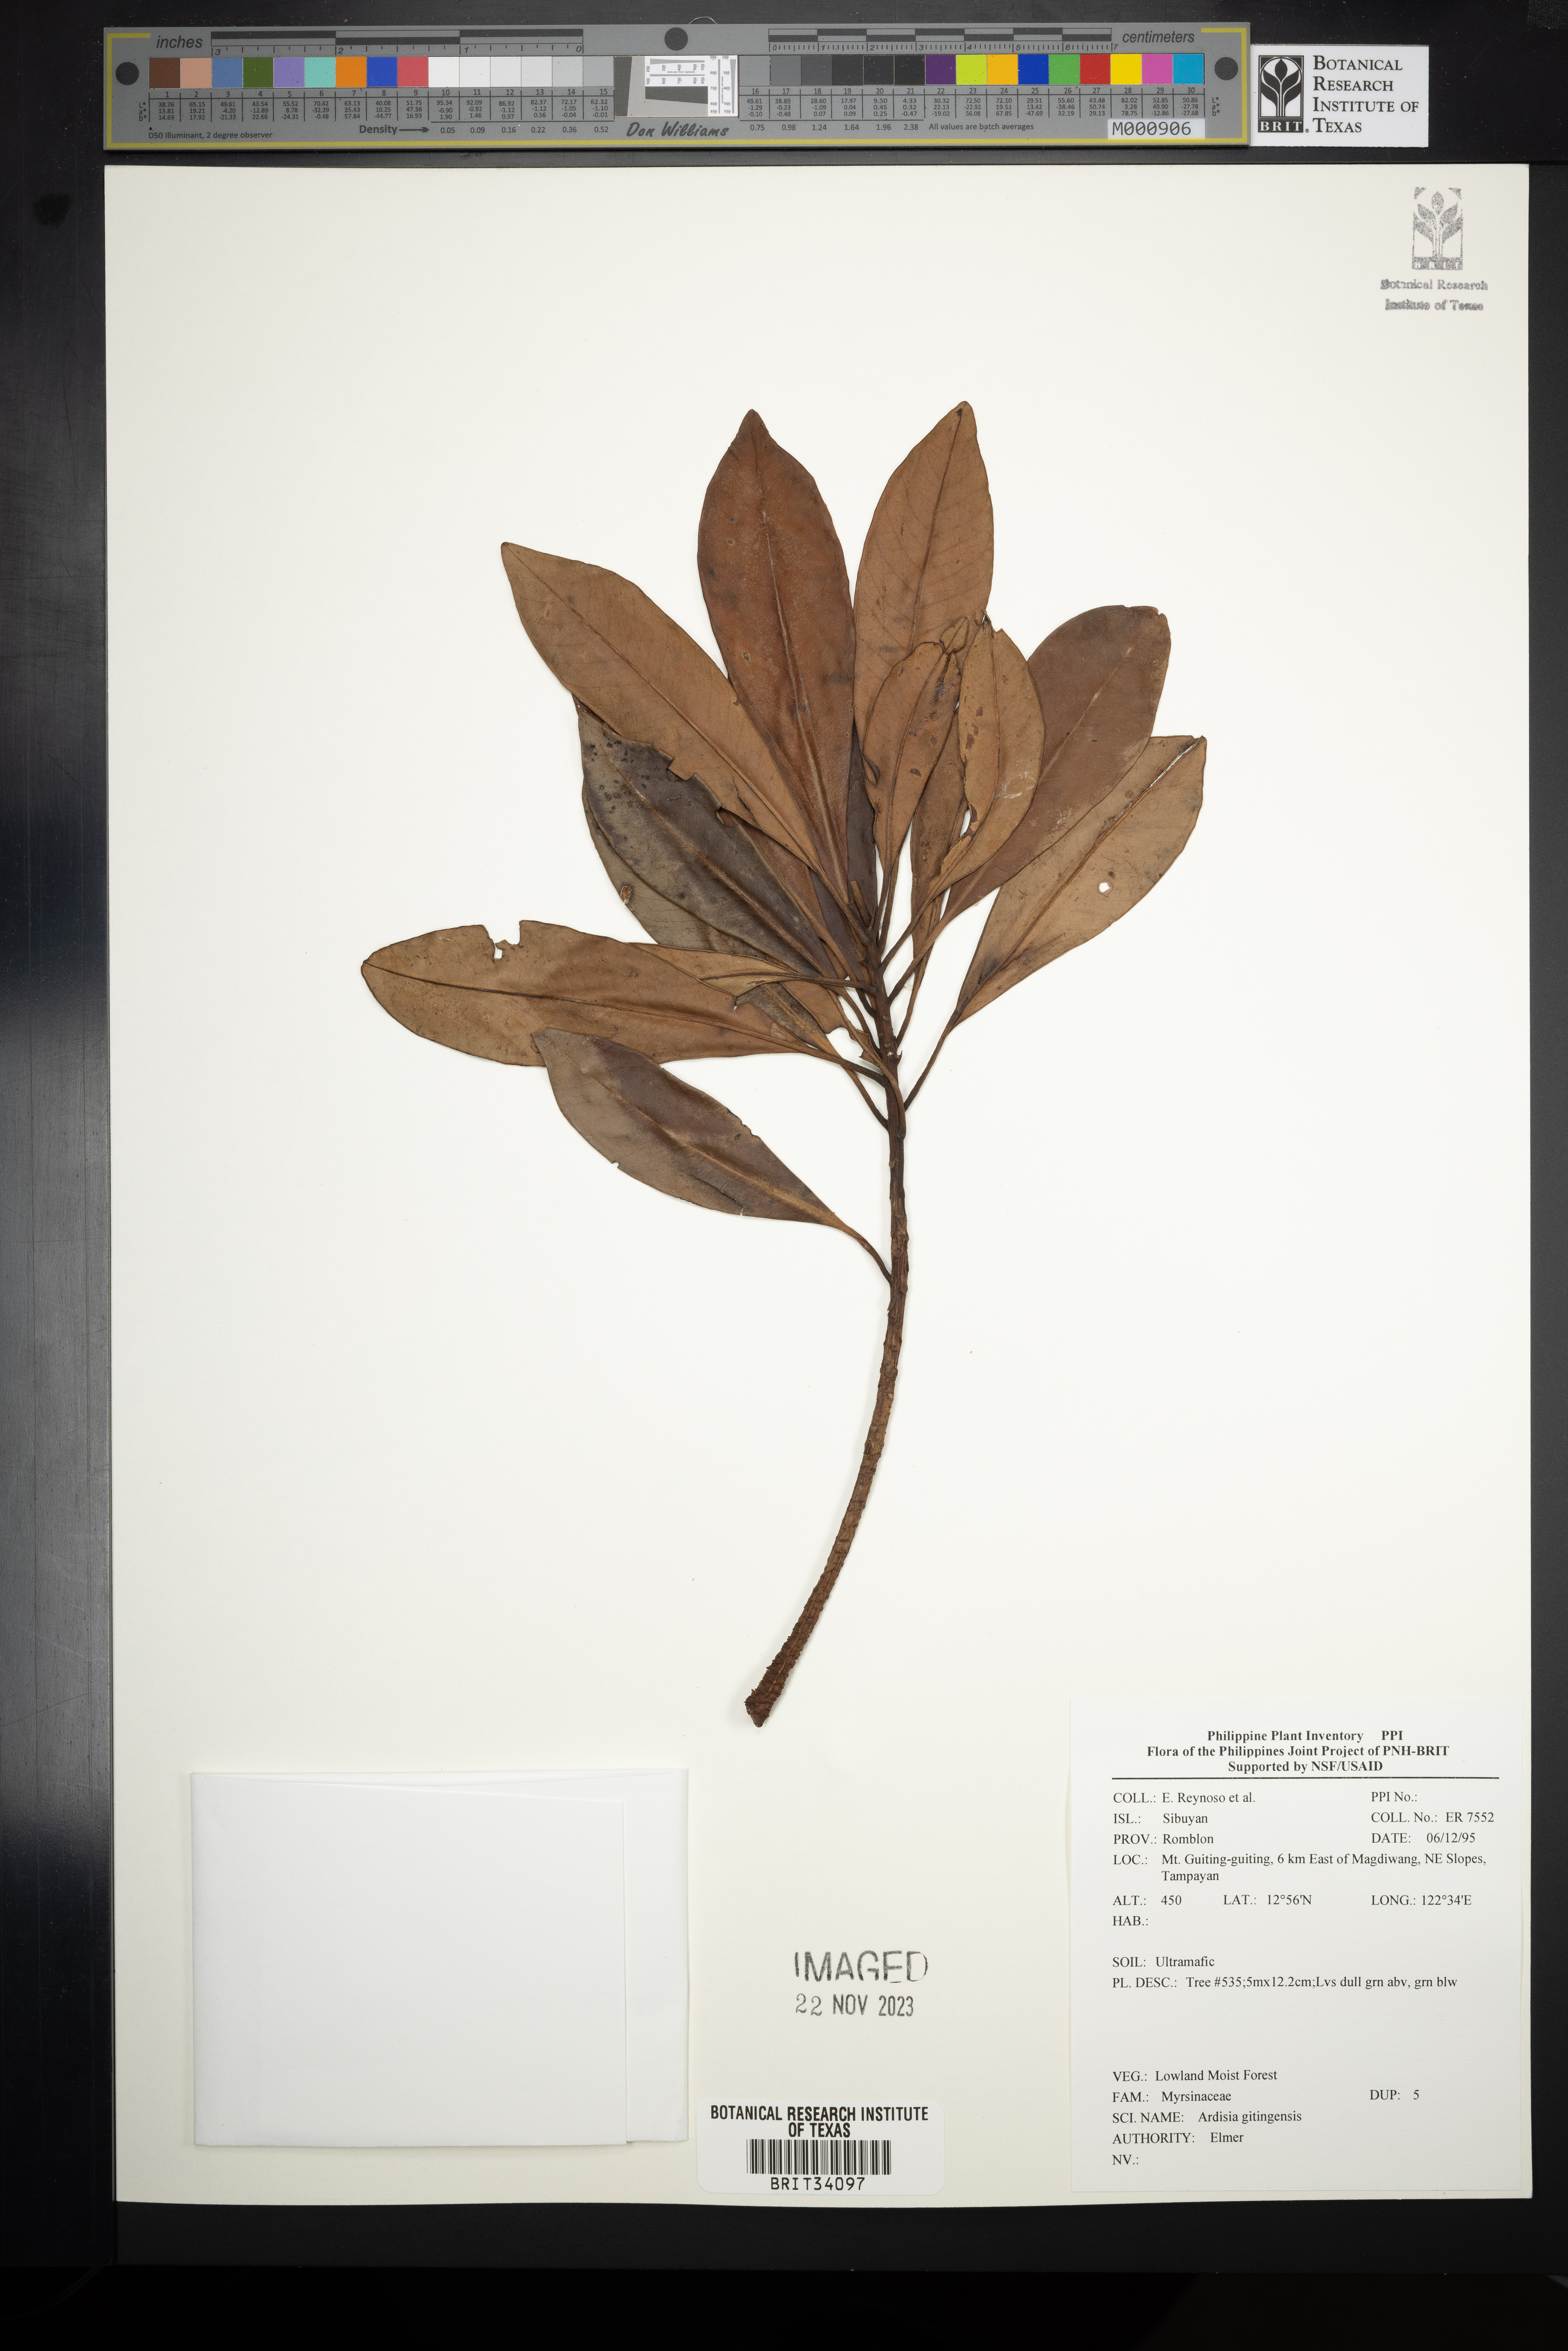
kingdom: Plantae
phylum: Tracheophyta
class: Magnoliopsida
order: Ericales
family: Primulaceae
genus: Ardisia
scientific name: Ardisia darlingii
